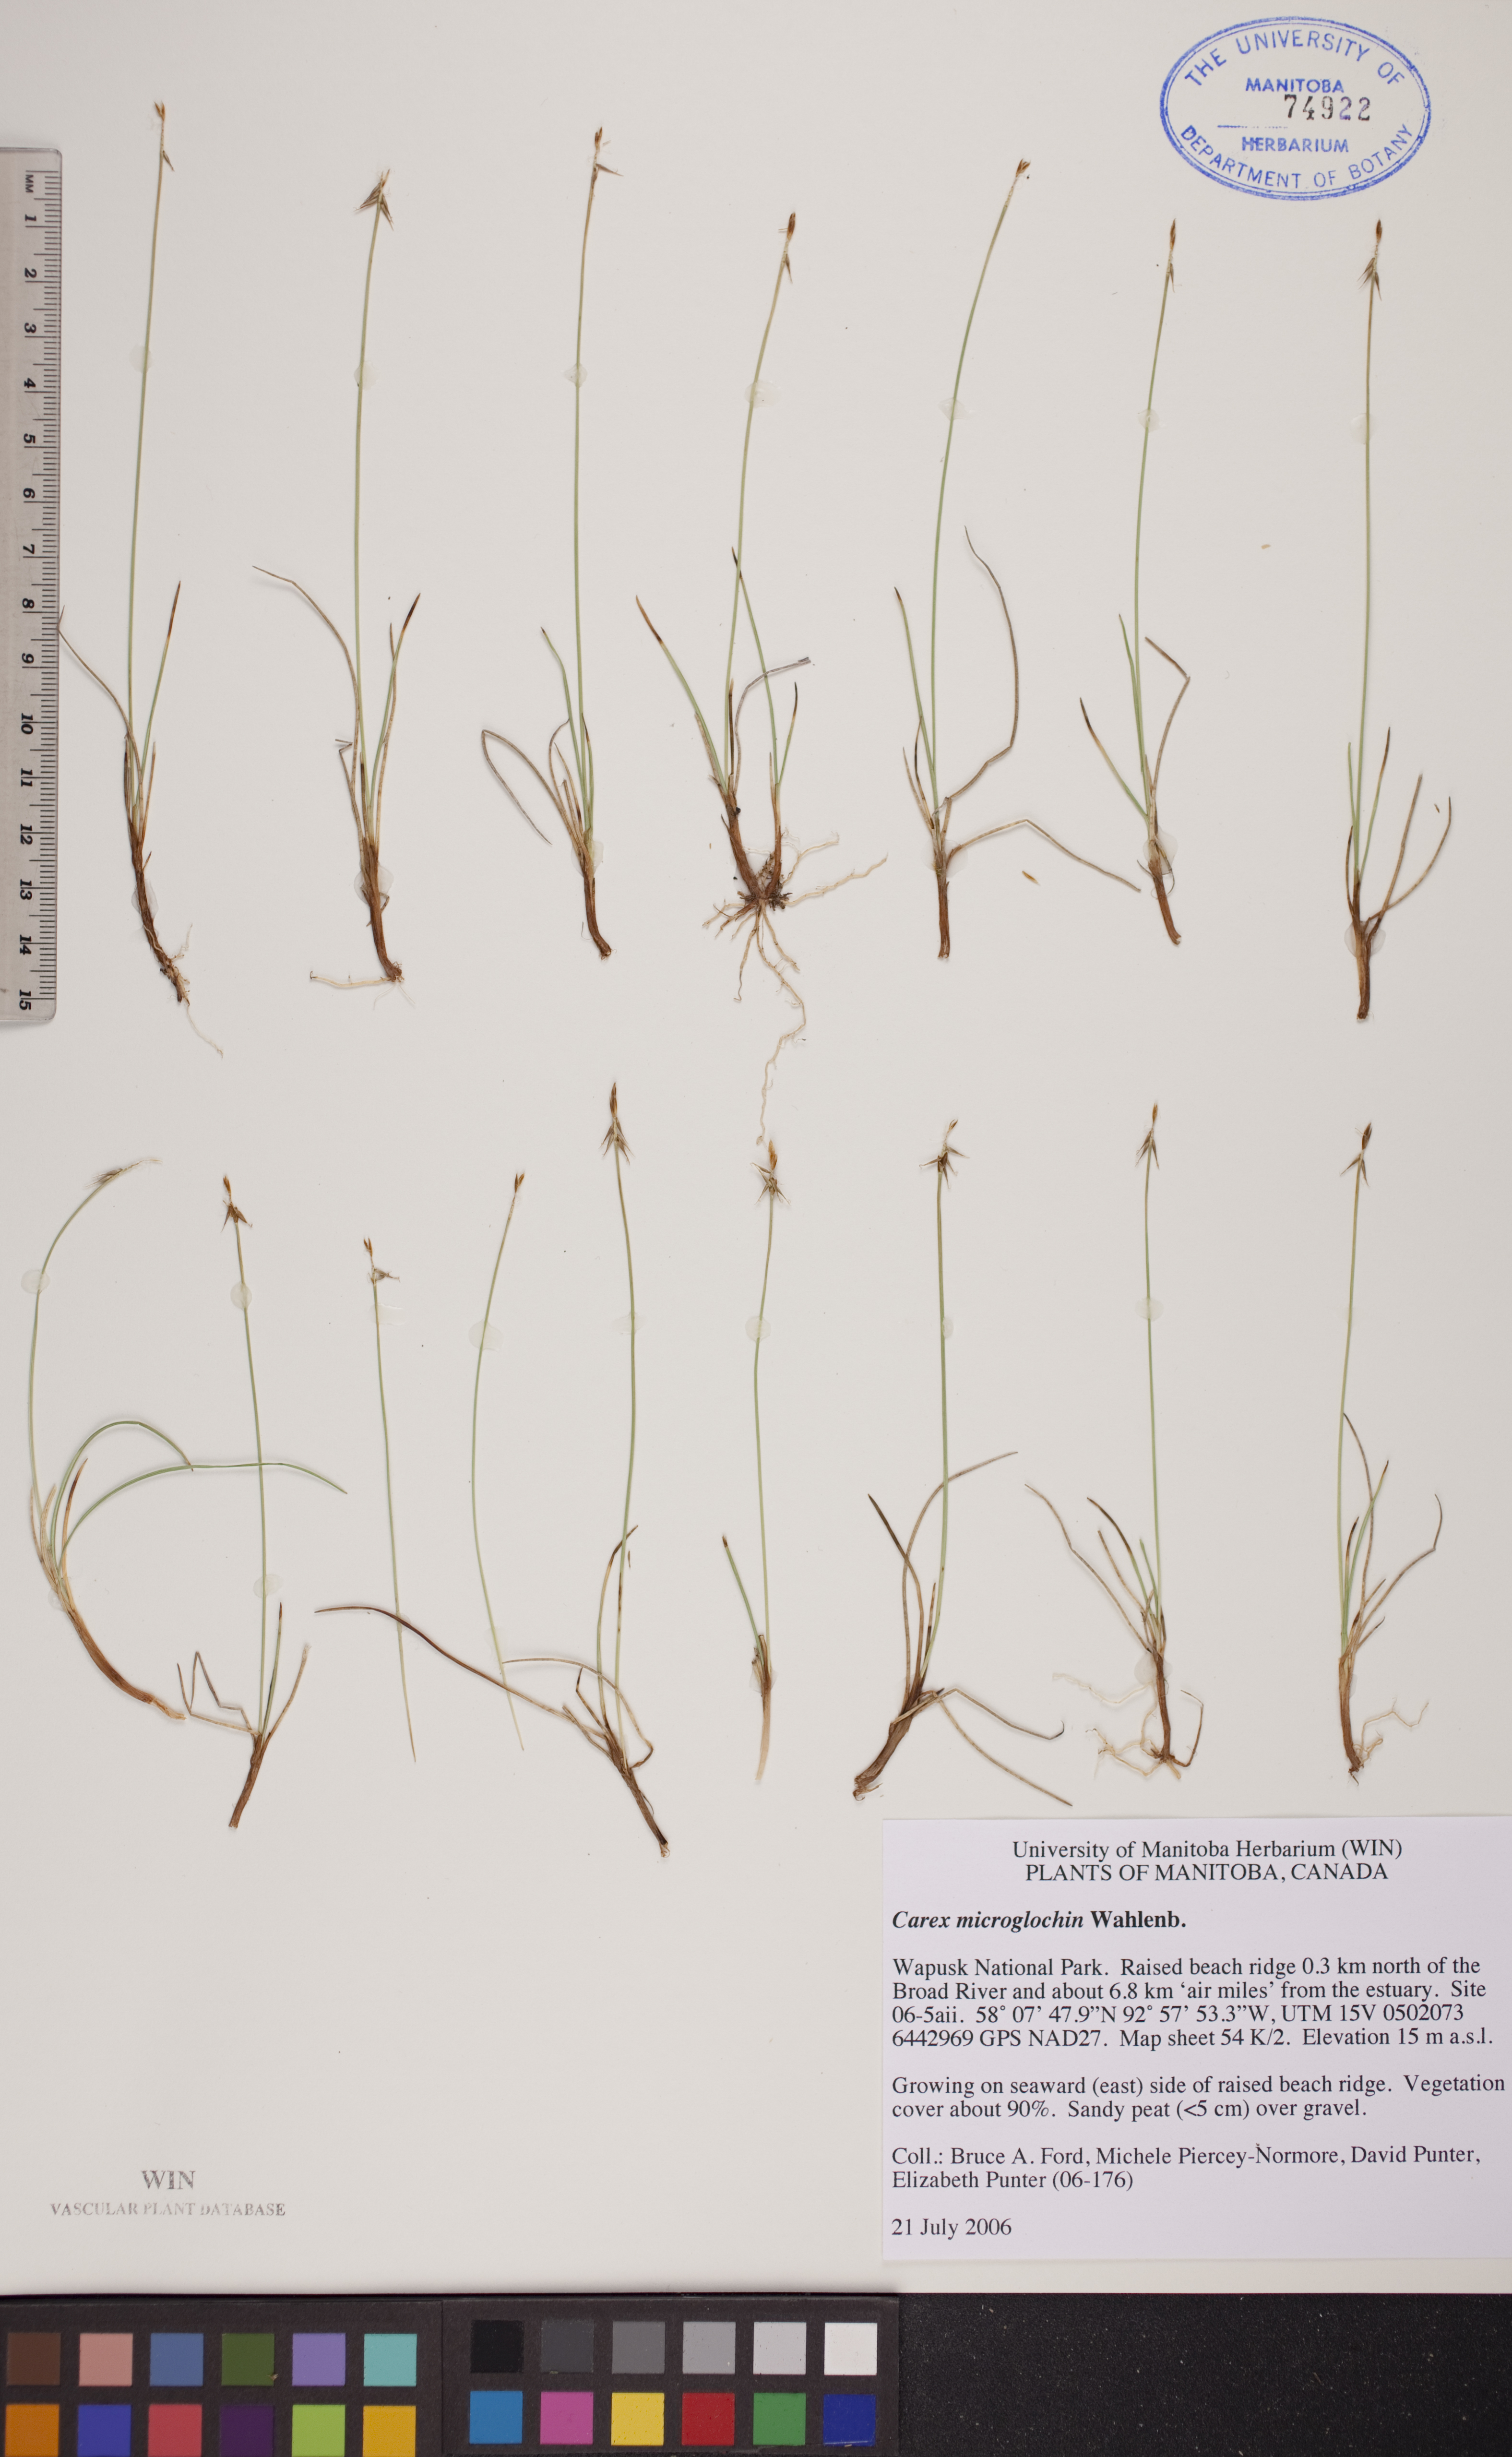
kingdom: Plantae
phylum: Tracheophyta
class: Liliopsida
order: Poales
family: Cyperaceae
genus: Carex
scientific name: Carex microglochin
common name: Bristle sedge
